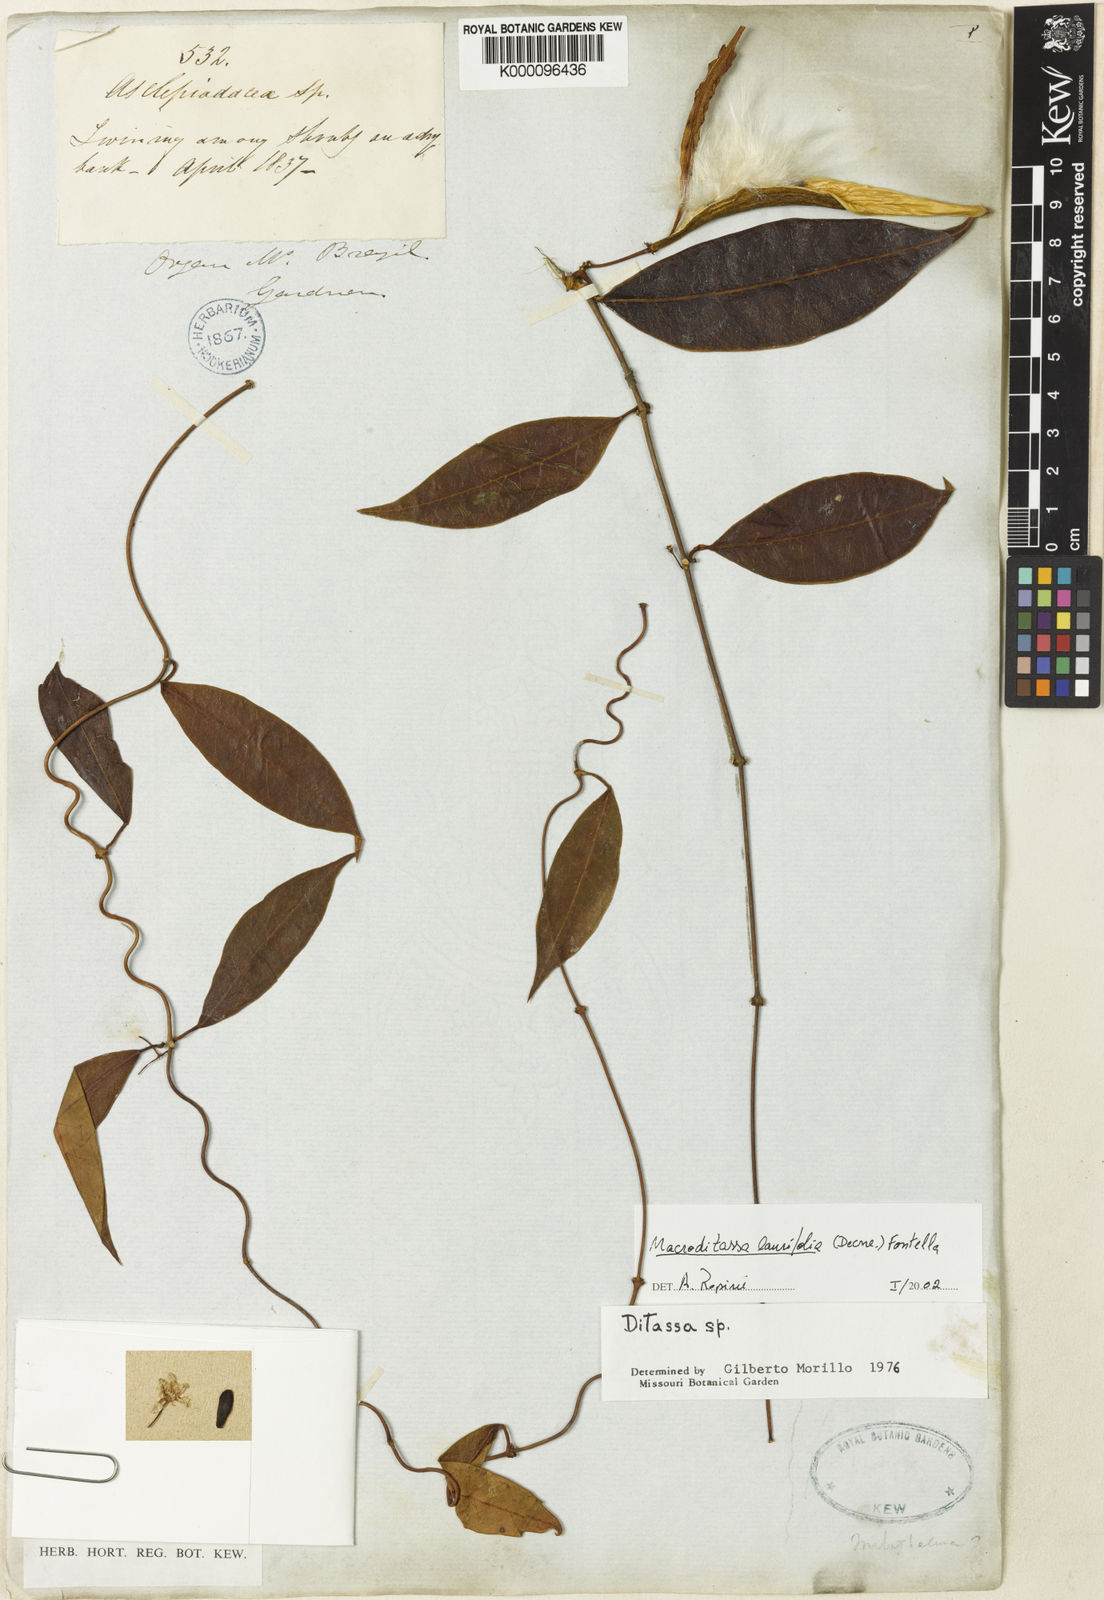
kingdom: Plantae
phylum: Tracheophyta
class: Magnoliopsida
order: Gentianales
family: Apocynaceae
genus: Nephradenia
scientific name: Nephradenia laurifolia
